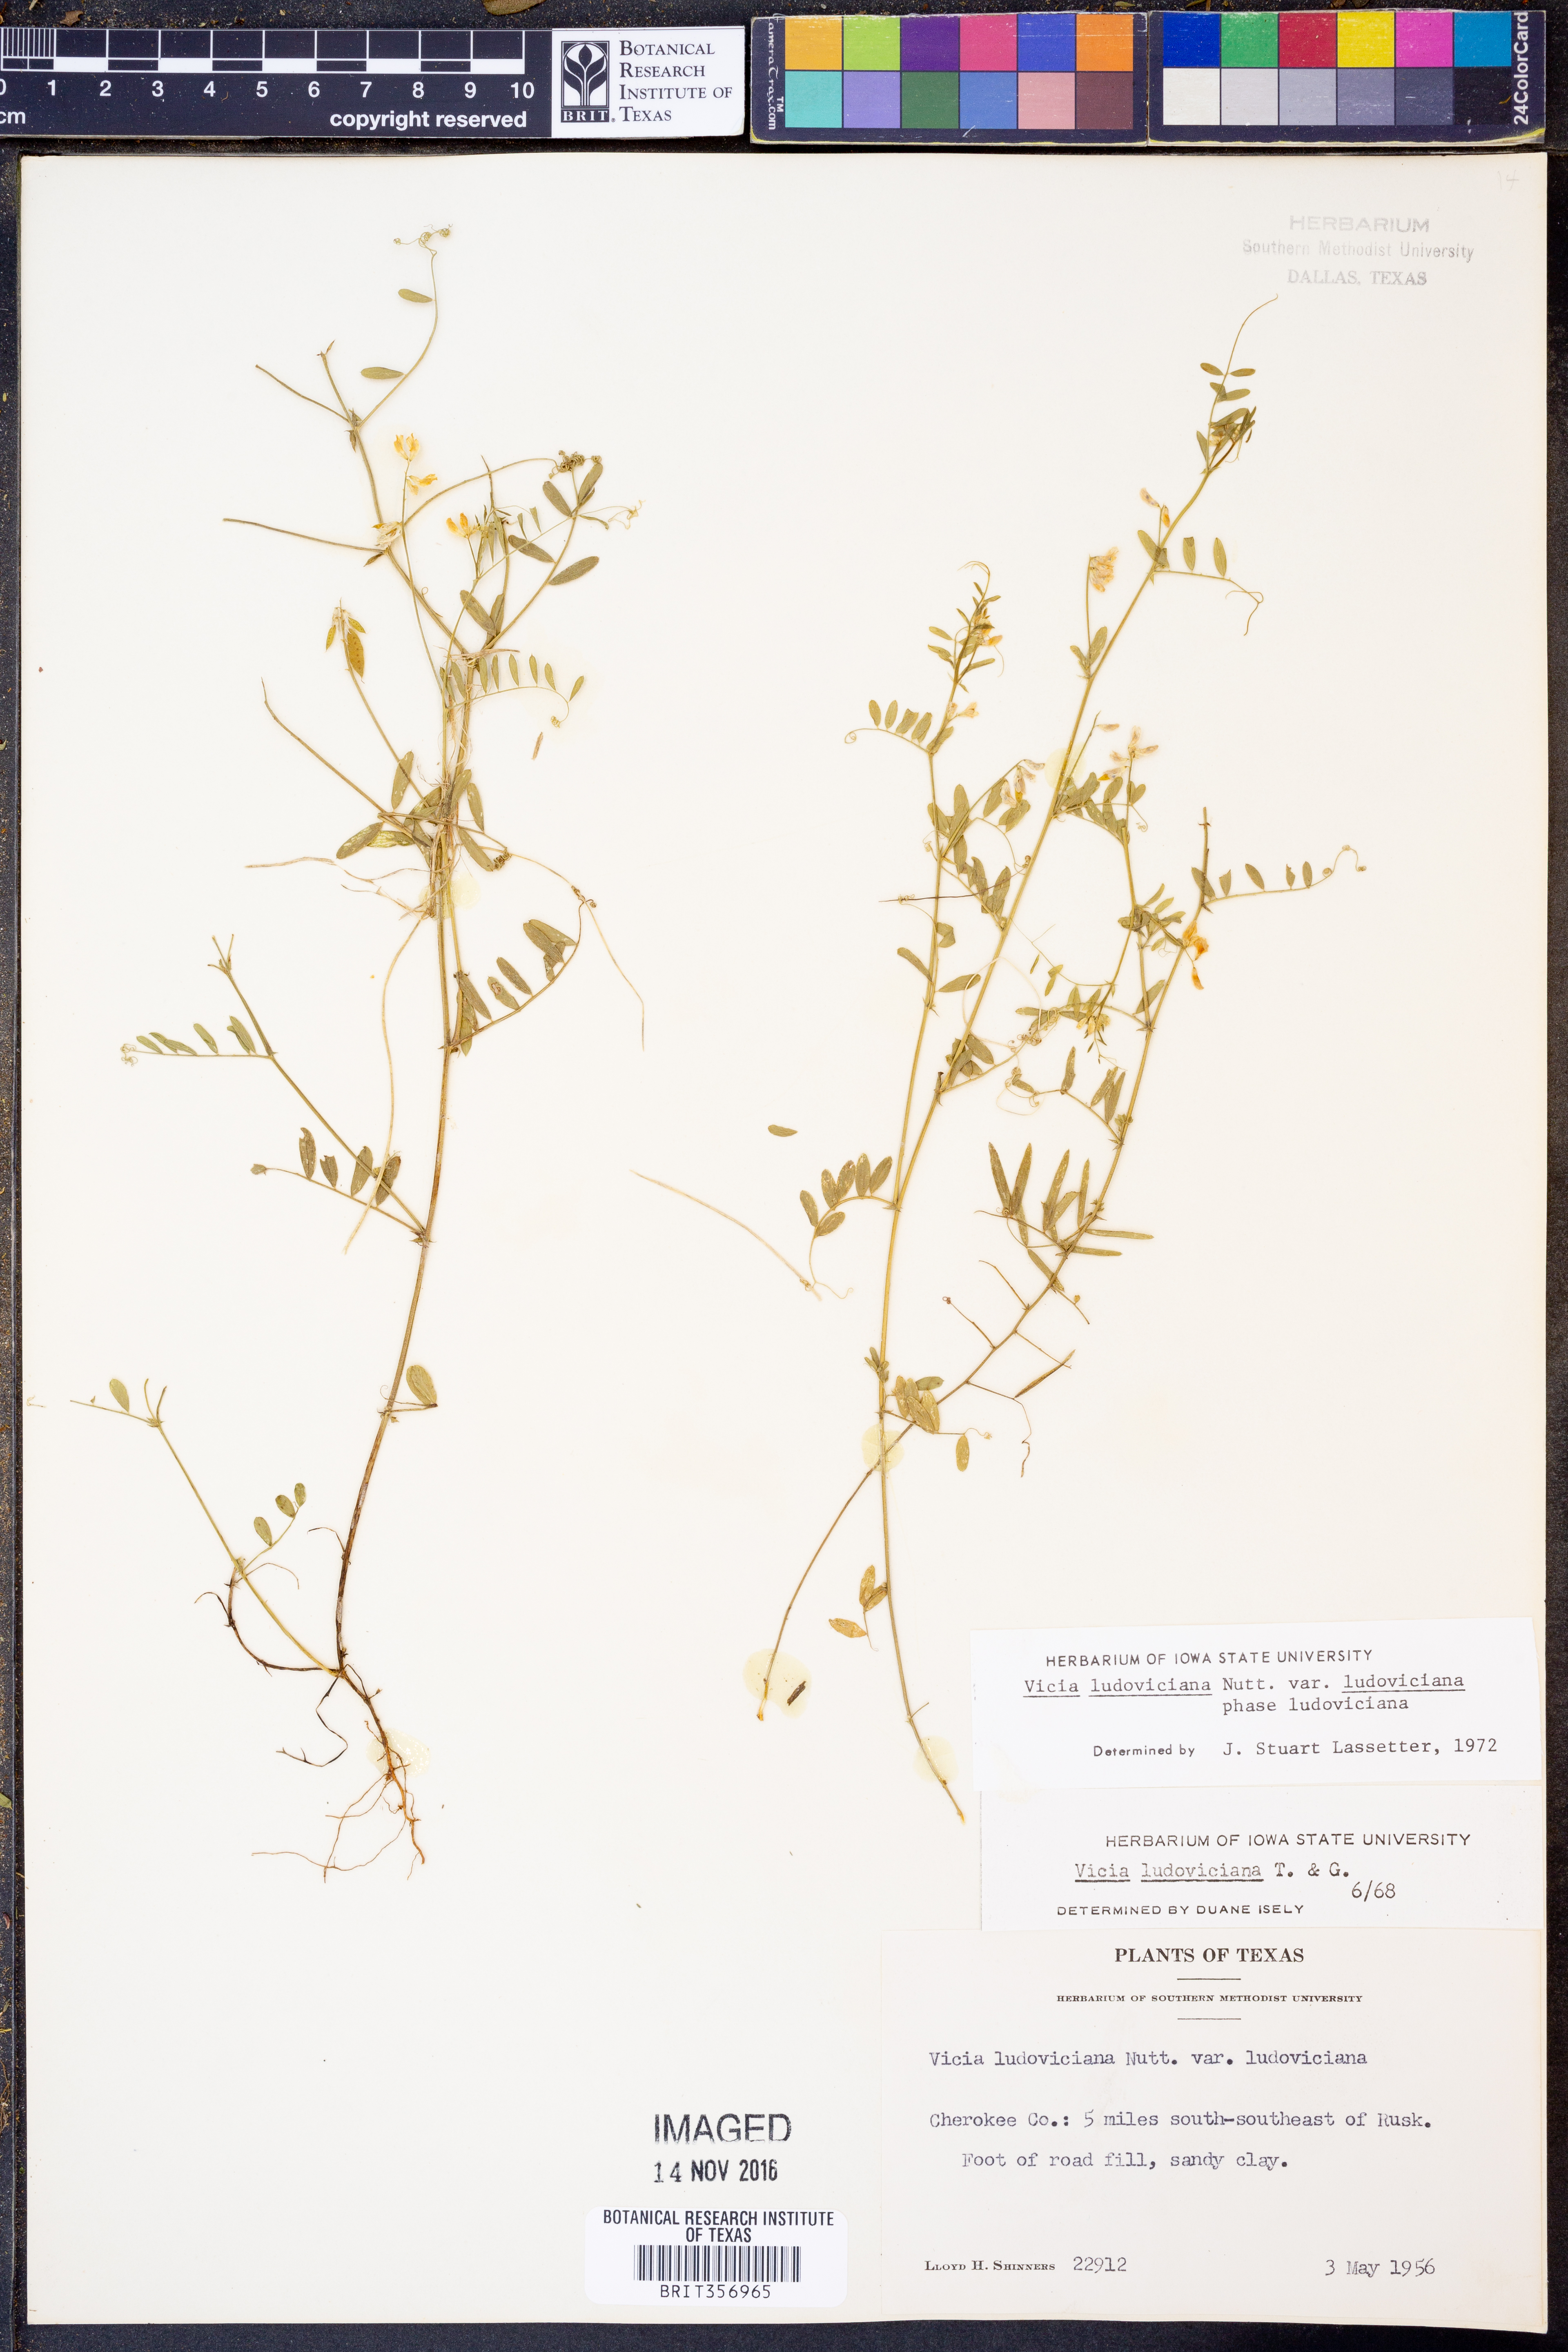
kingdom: Plantae
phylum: Tracheophyta
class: Magnoliopsida
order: Fabales
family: Fabaceae
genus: Vicia
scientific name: Vicia ludoviciana
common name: Louisiana vetch
